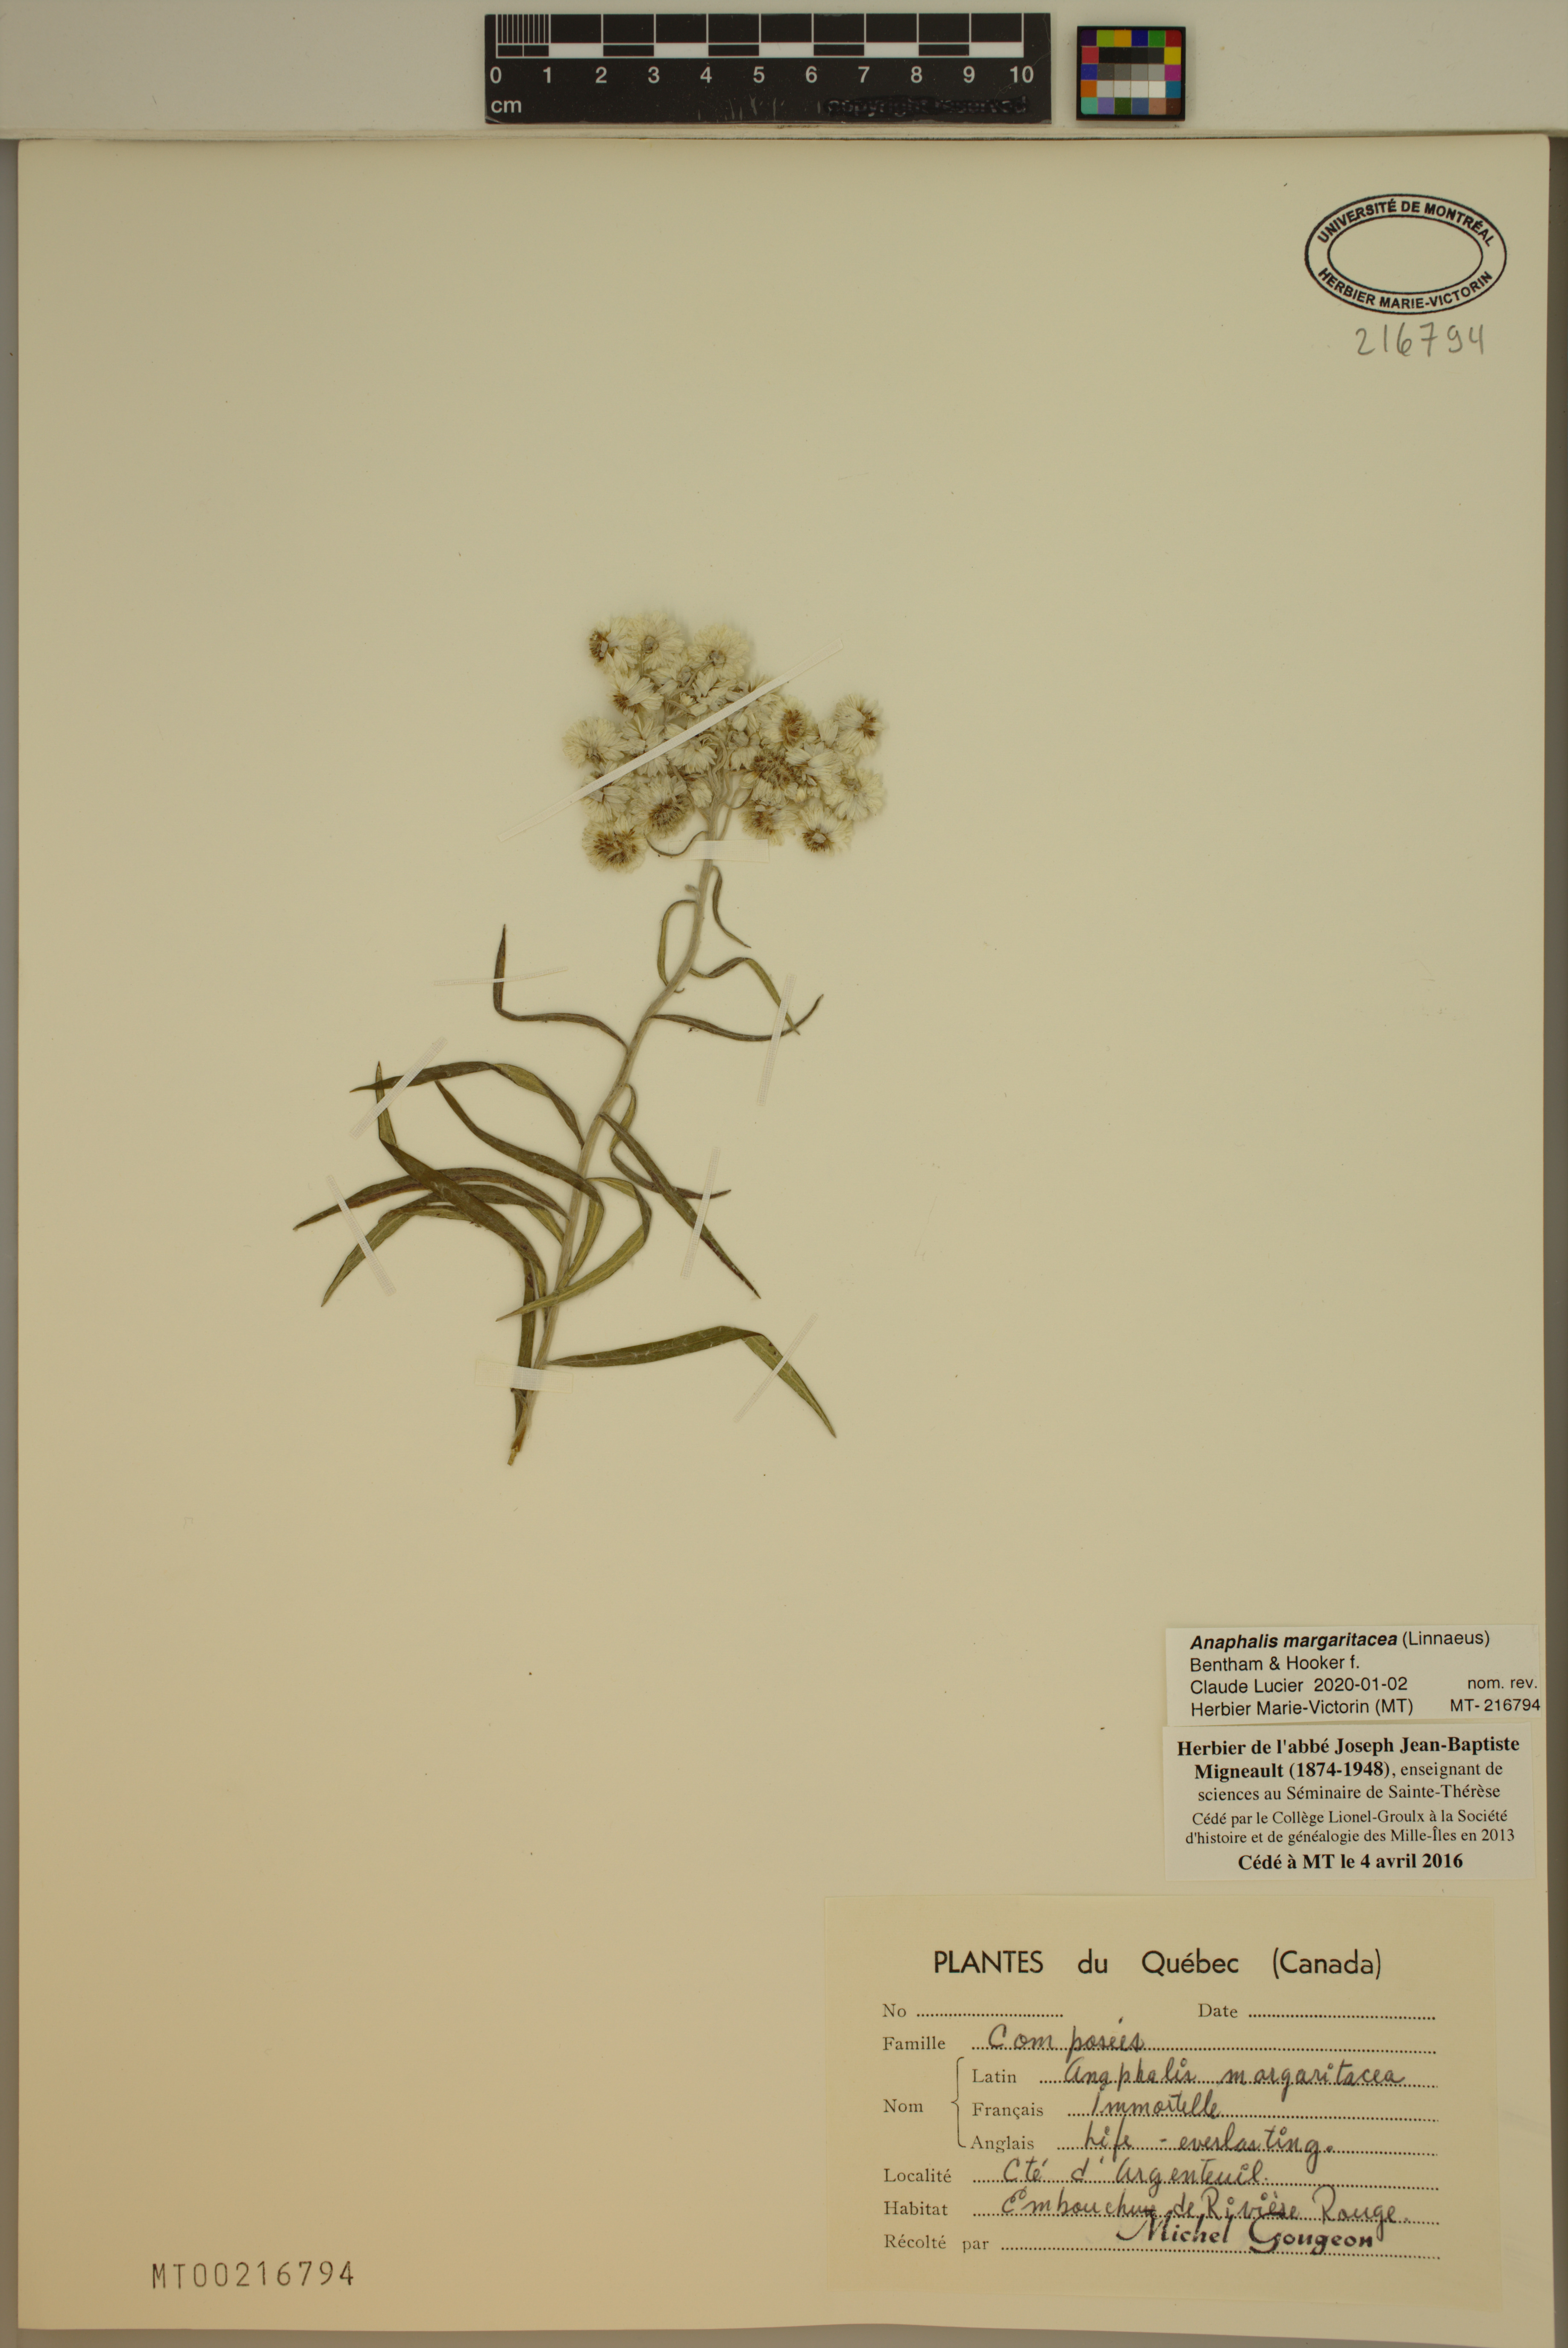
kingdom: Plantae
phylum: Tracheophyta
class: Magnoliopsida
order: Asterales
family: Asteraceae
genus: Anaphalis
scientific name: Anaphalis margaritacea
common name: Pearly everlasting
